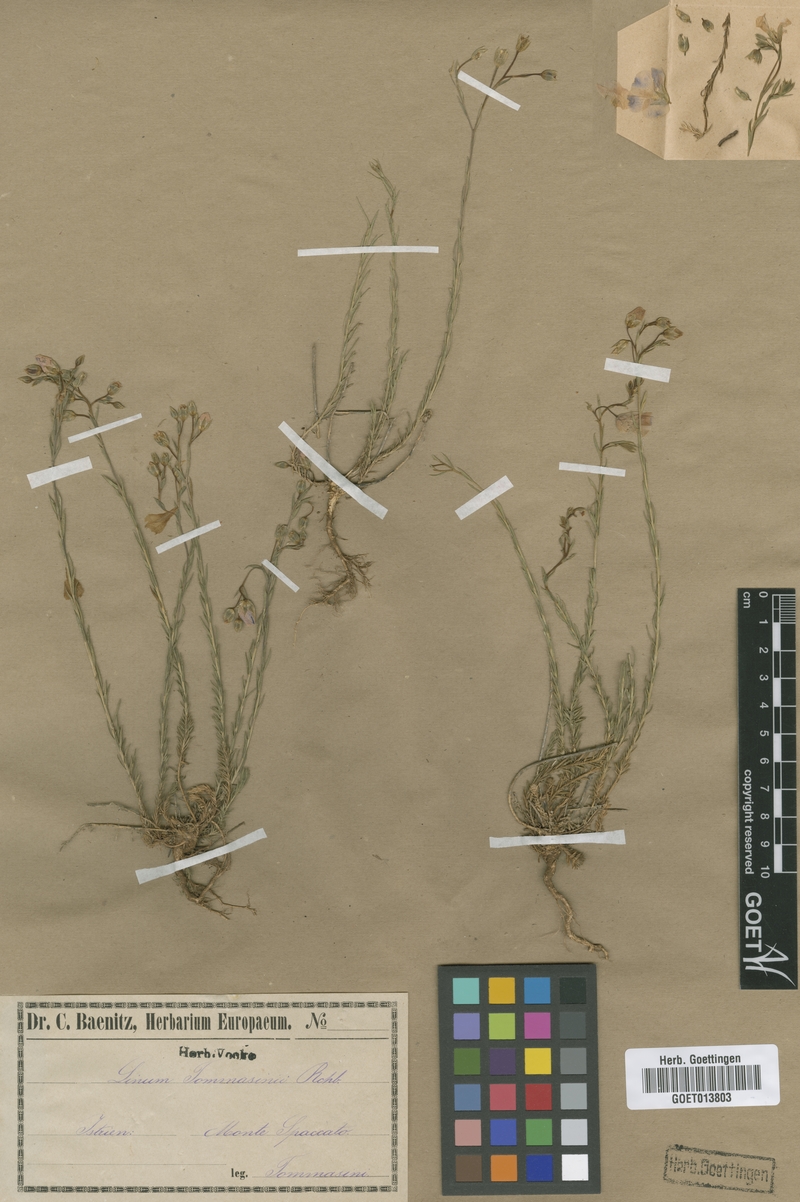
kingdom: Plantae
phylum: Tracheophyta
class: Magnoliopsida
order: Malpighiales
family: Linaceae
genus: Linum
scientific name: Linum austriacum
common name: Austrian flax
